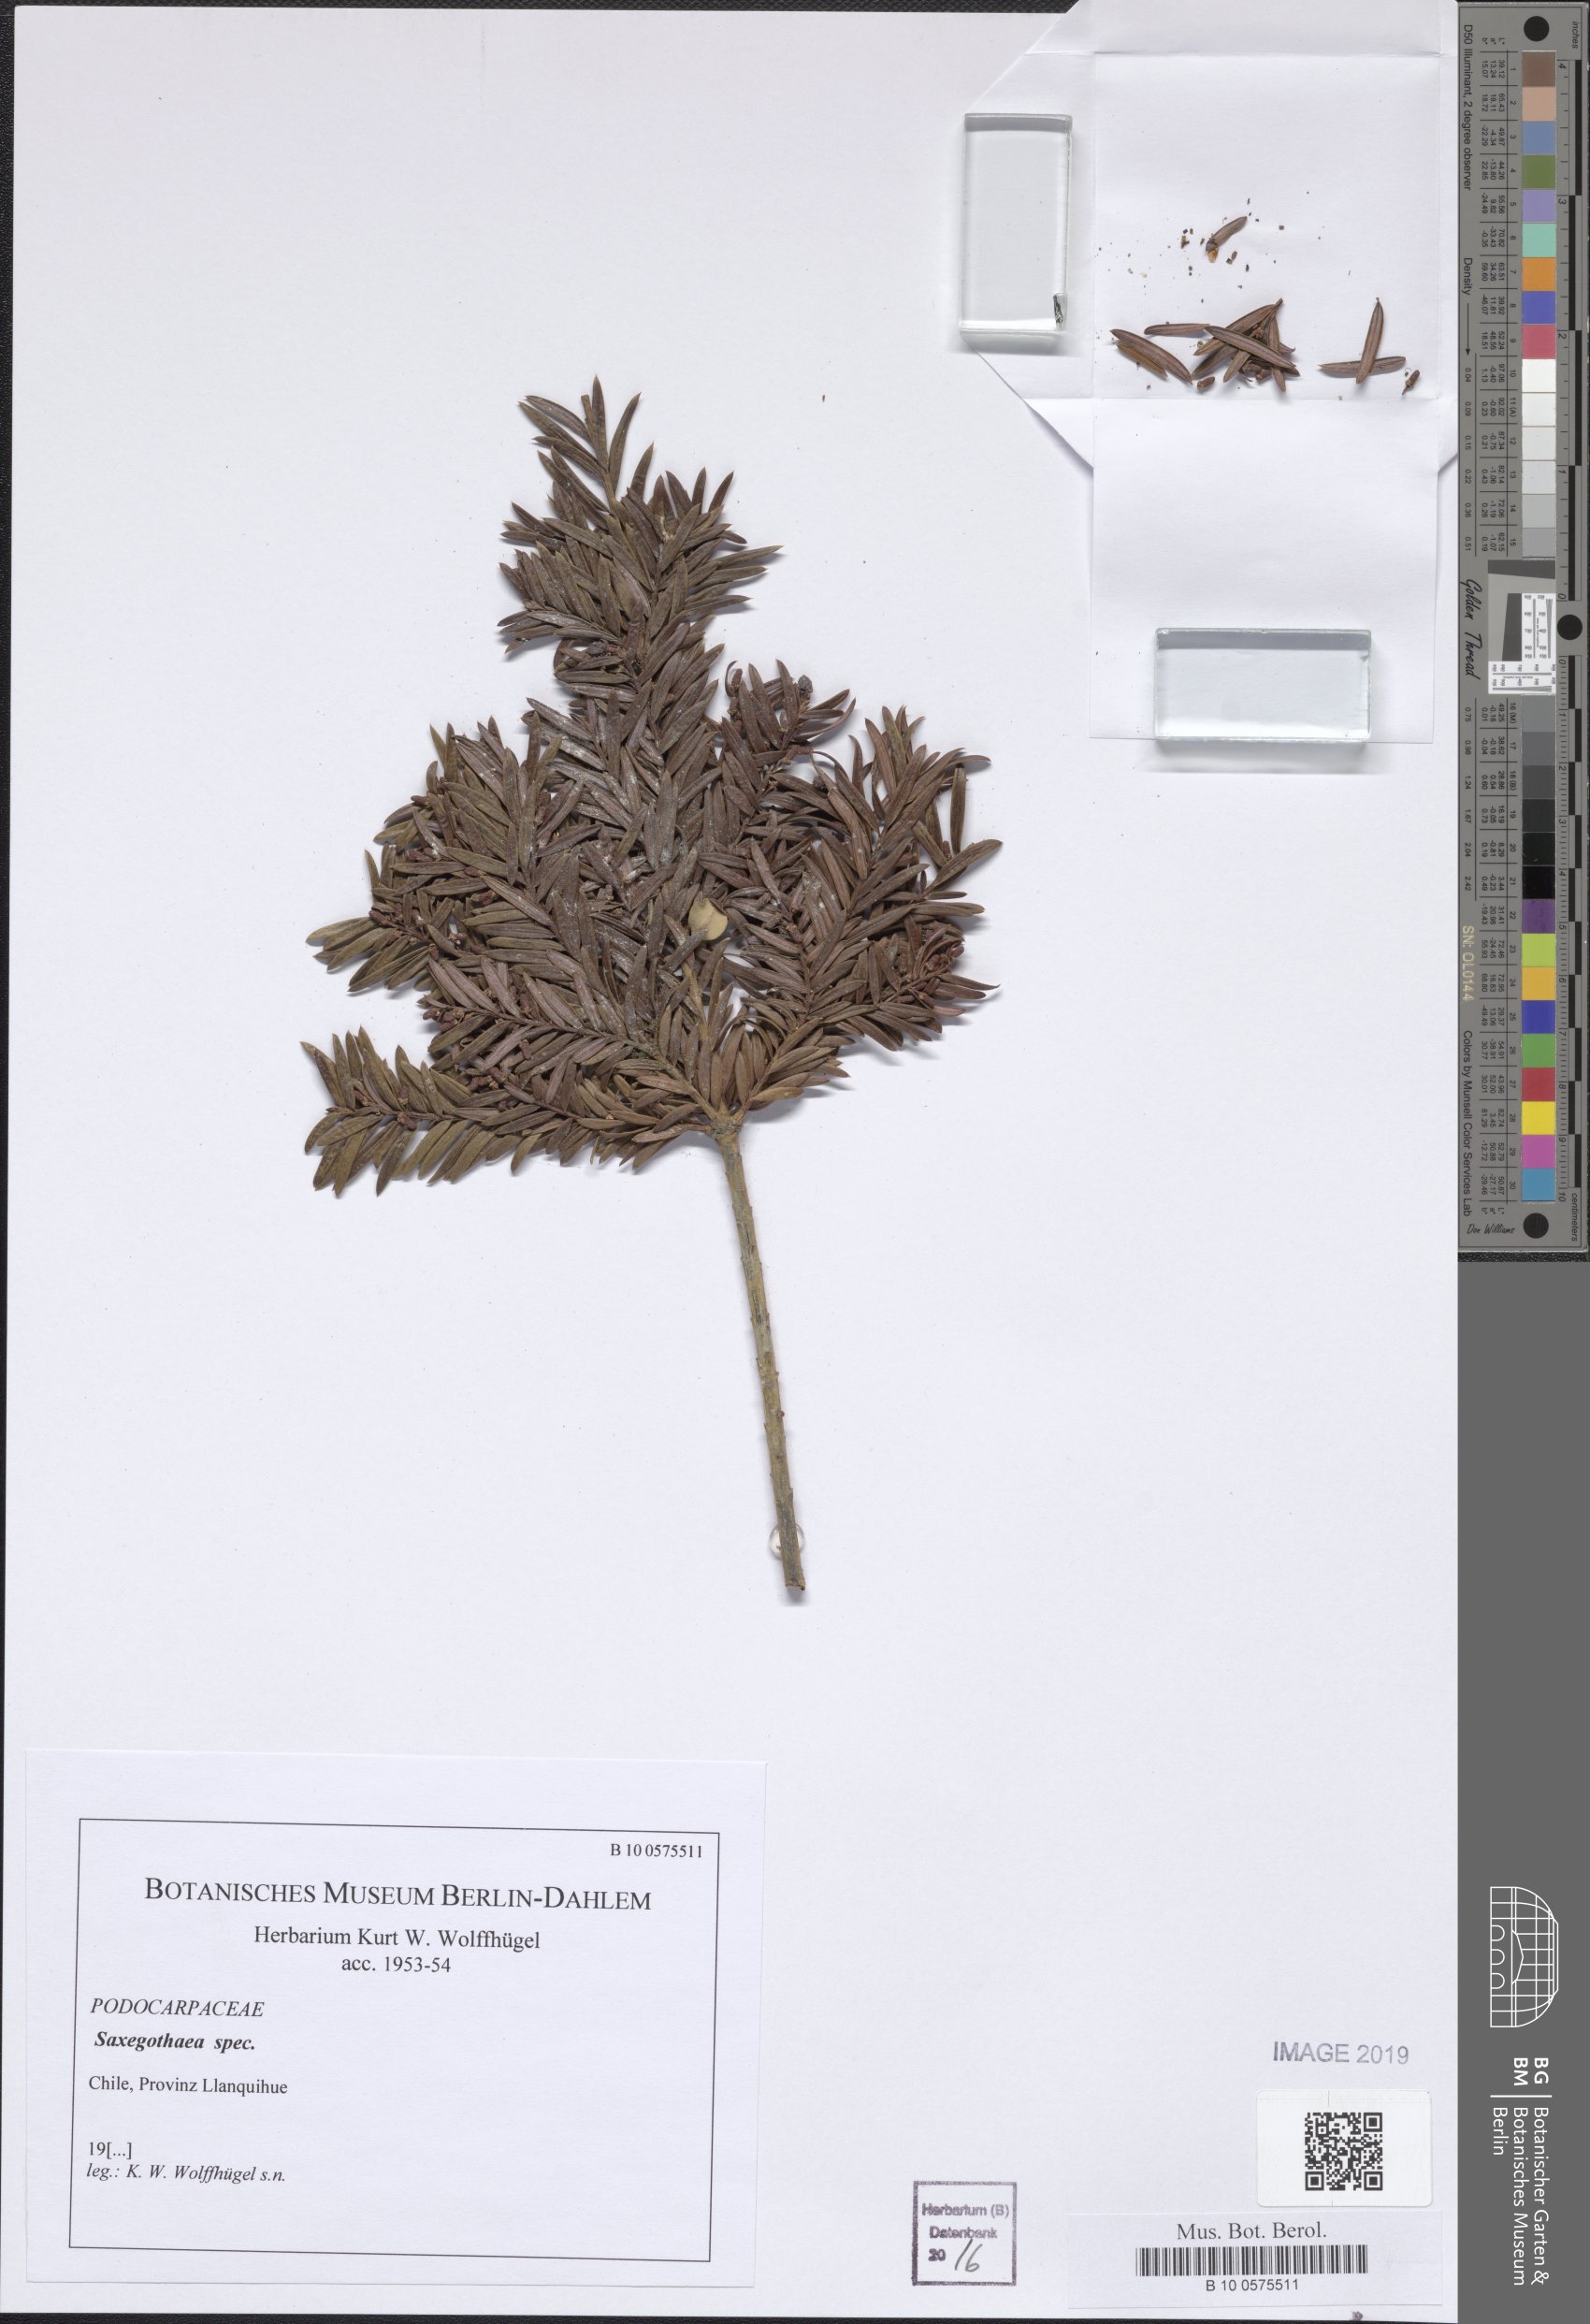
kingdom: Plantae
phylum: Tracheophyta
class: Pinopsida
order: Pinales
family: Podocarpaceae
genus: Saxegothaea
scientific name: Saxegothaea
